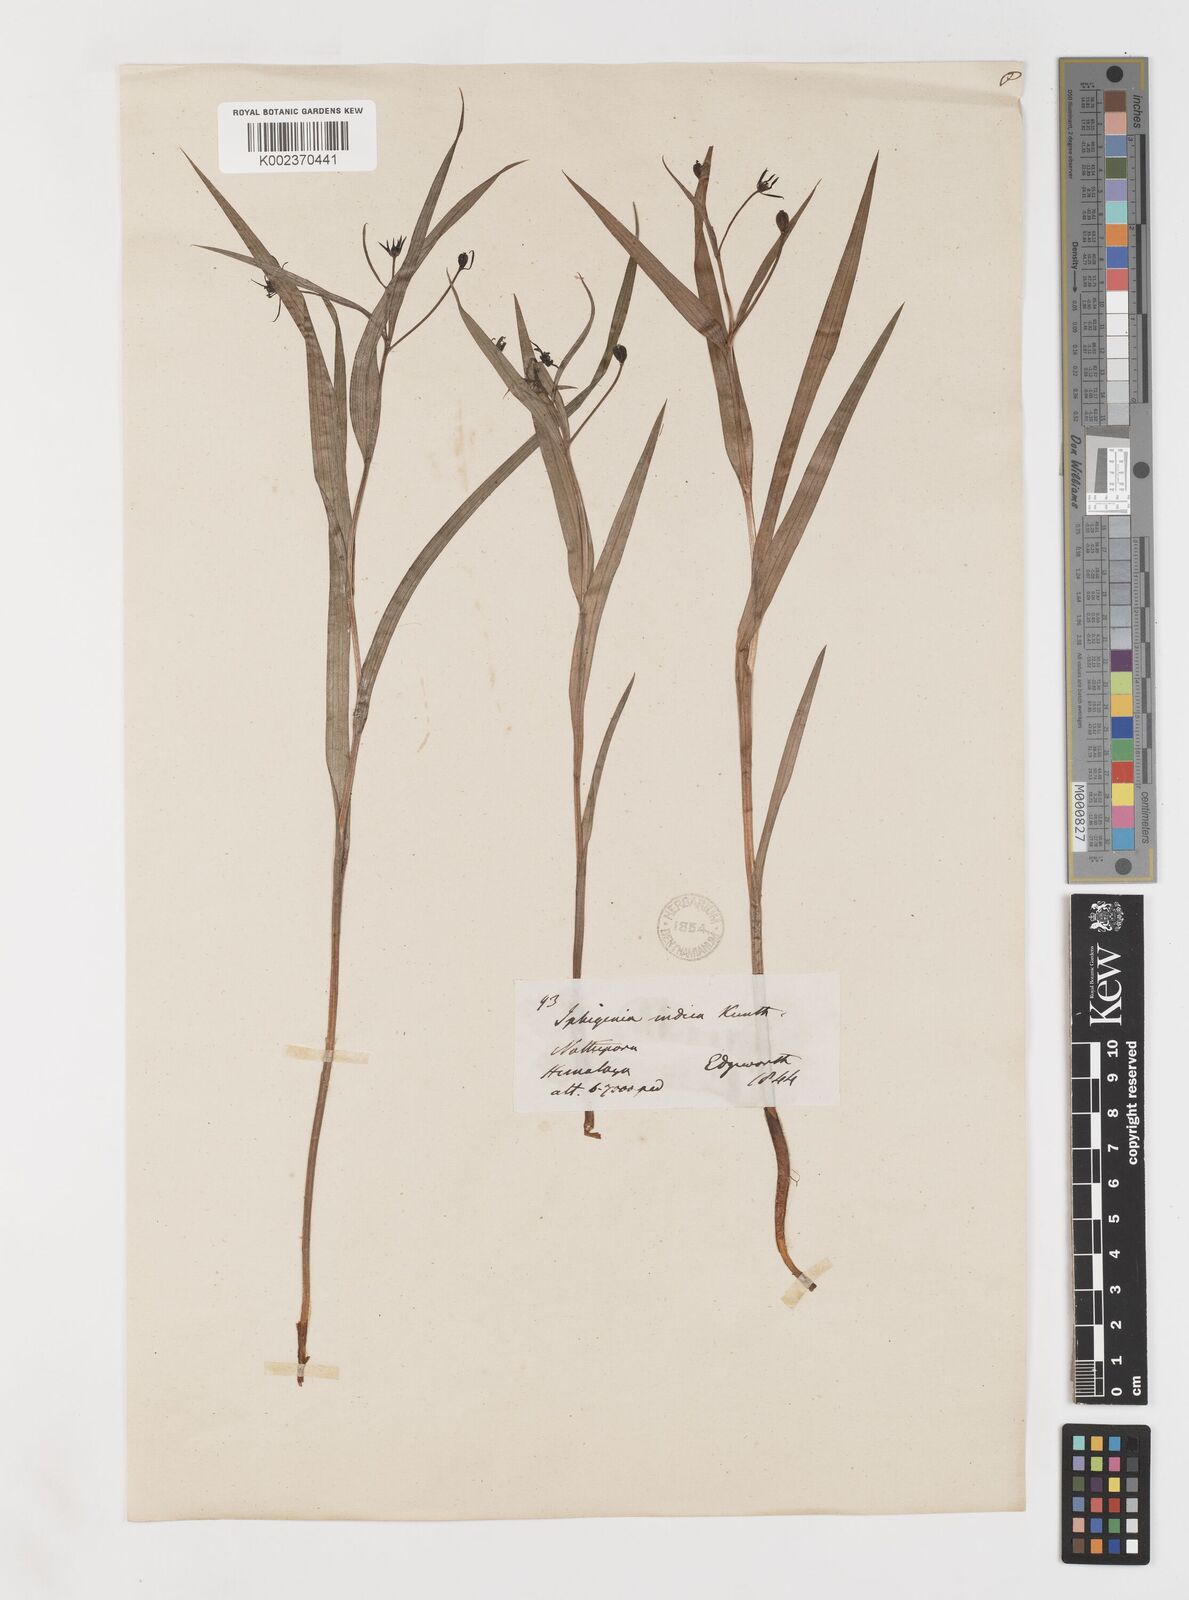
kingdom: Plantae
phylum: Tracheophyta
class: Liliopsida
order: Liliales
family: Colchicaceae
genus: Iphigenia
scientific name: Iphigenia indica
